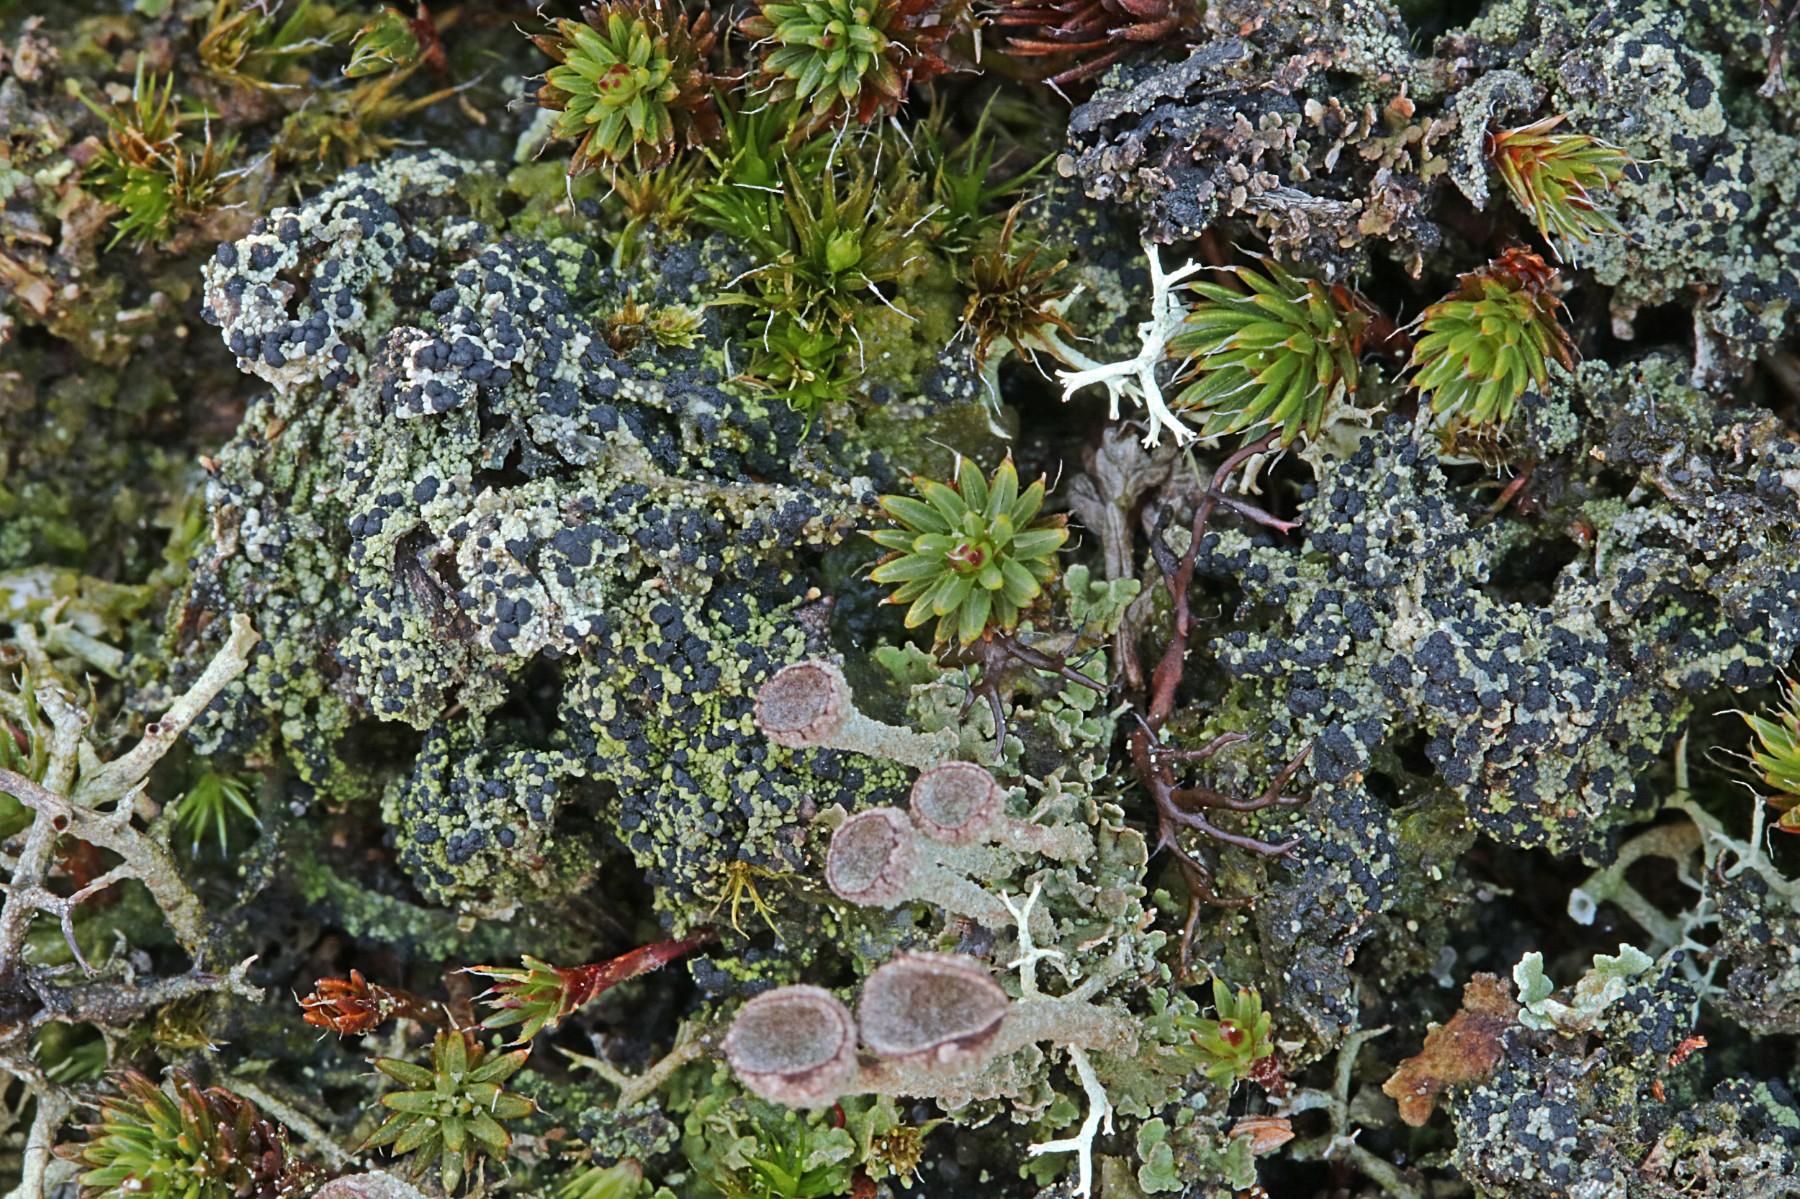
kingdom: Fungi
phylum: Ascomycota
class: Lecanoromycetes
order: Lecanorales
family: Byssolomataceae
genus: Micarea
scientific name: Micarea lignaria
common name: tørve-knaplav
